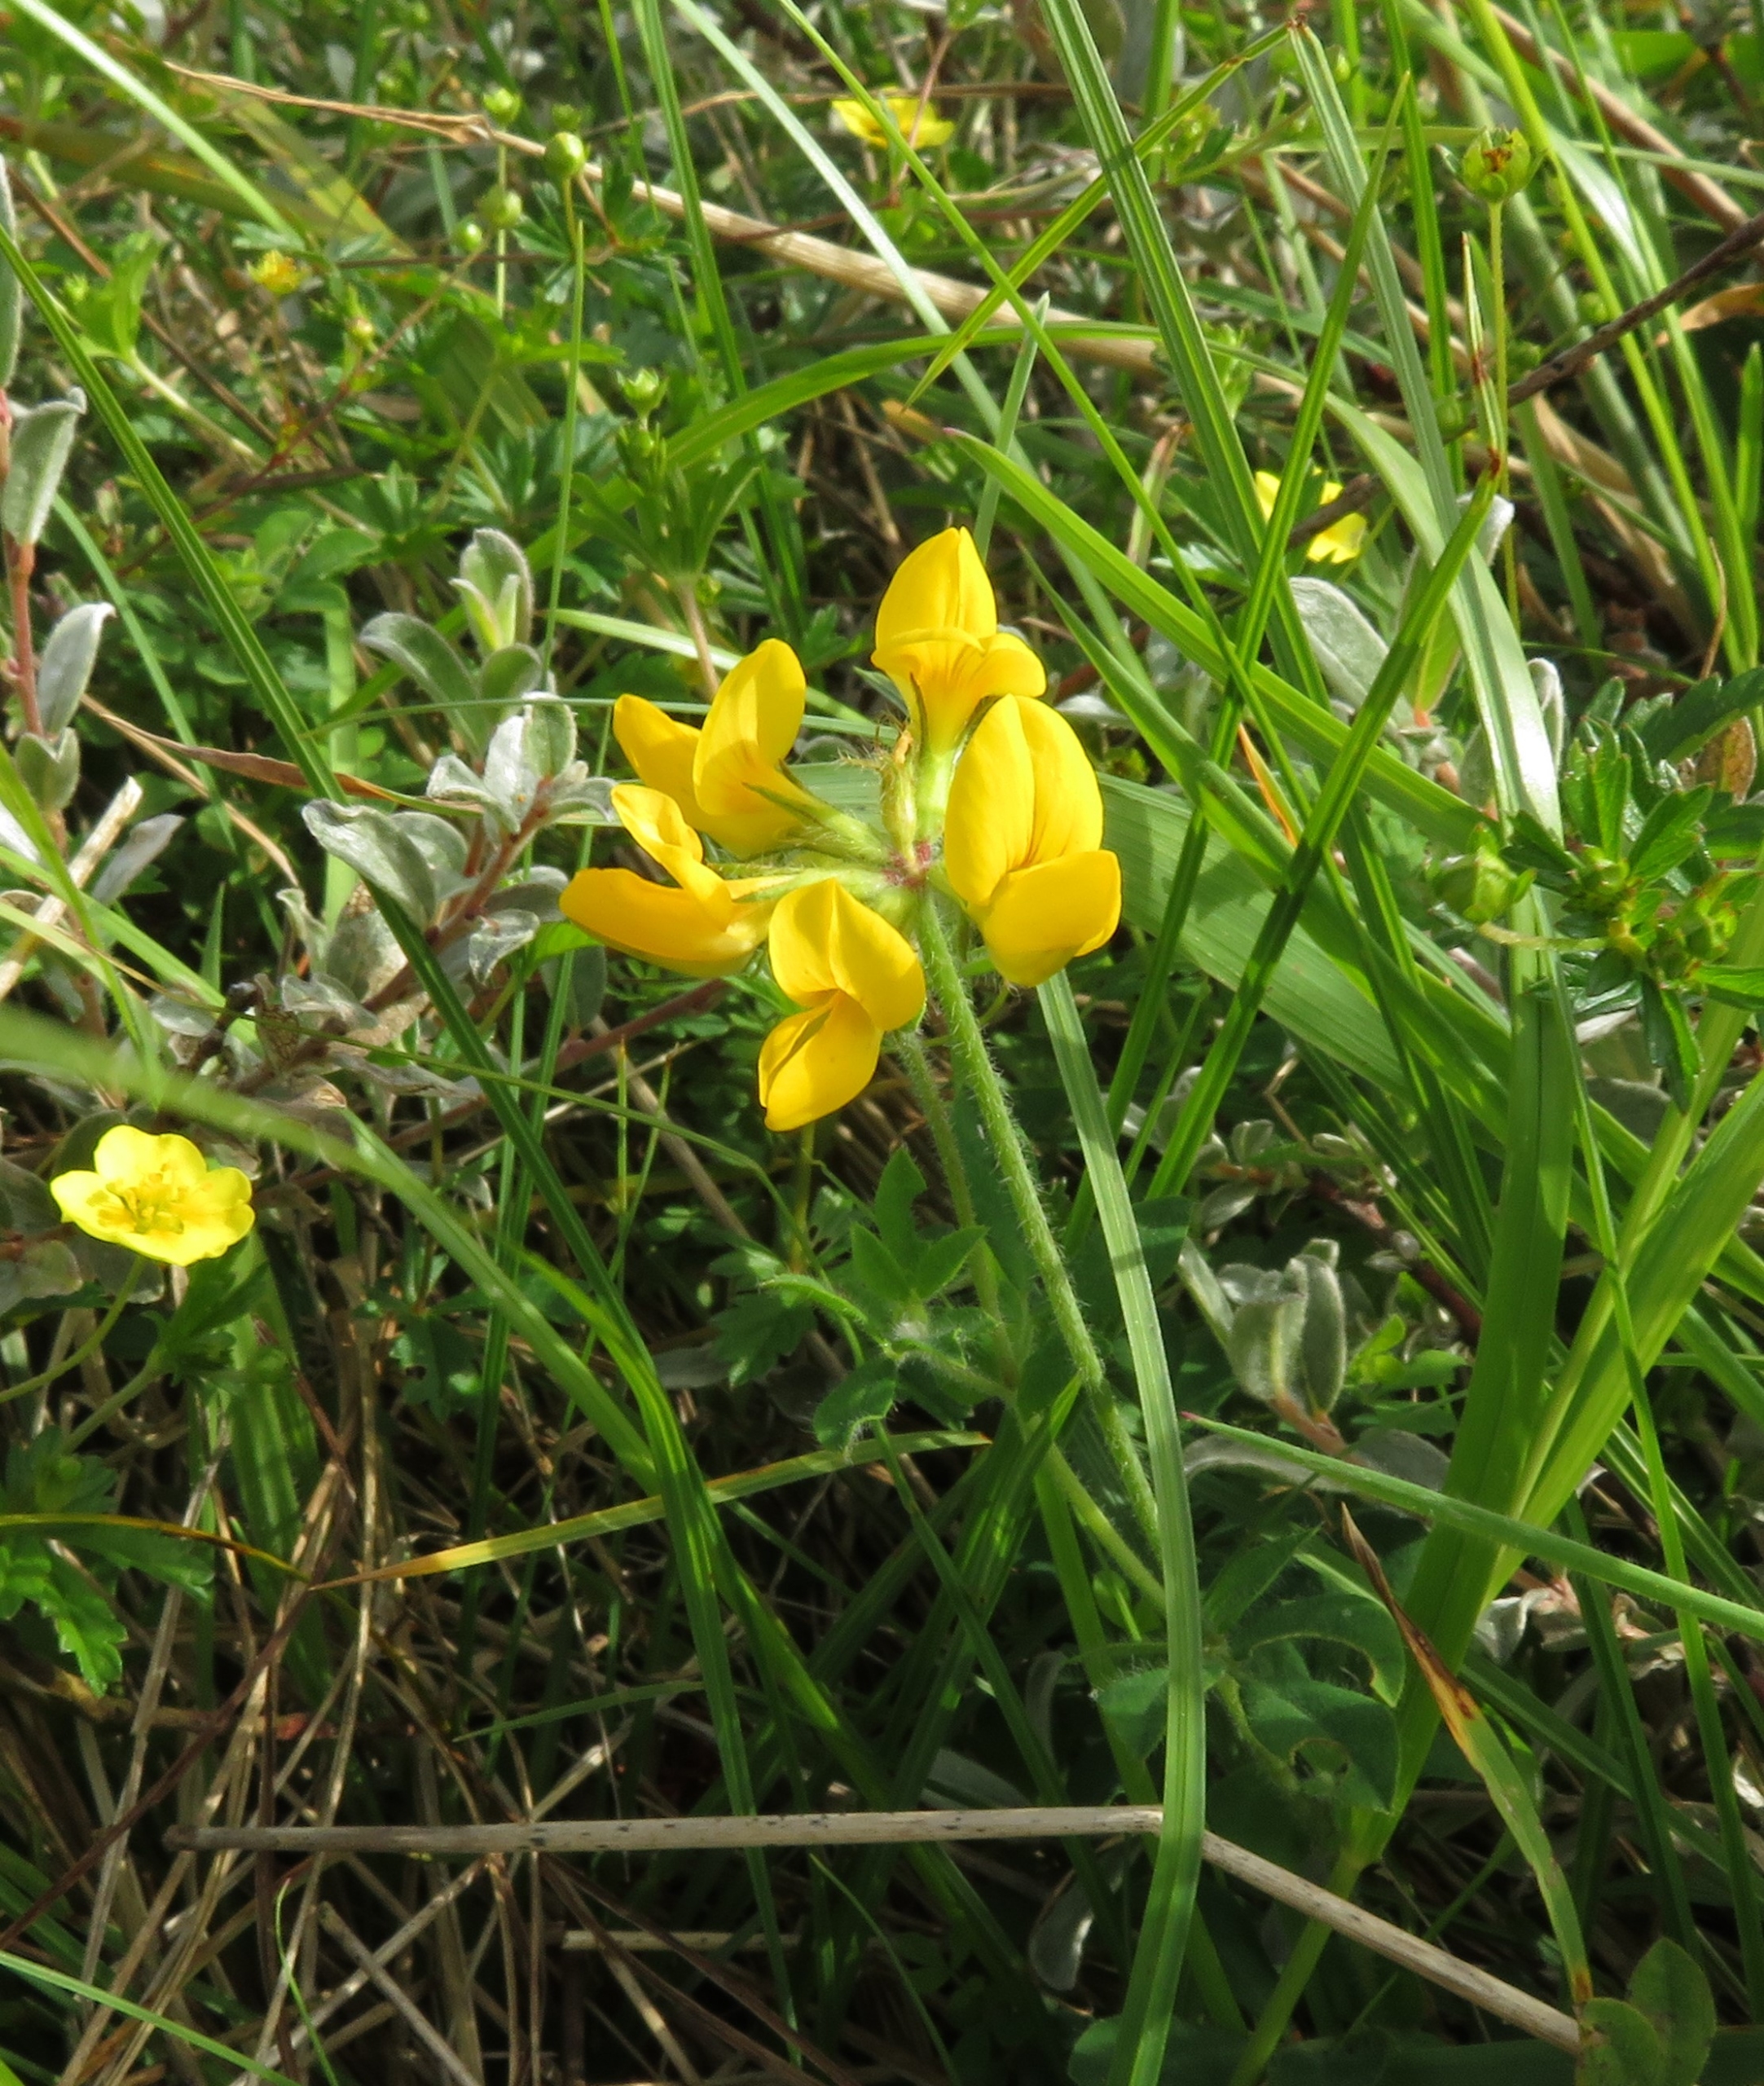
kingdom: Plantae
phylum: Tracheophyta
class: Magnoliopsida
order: Fabales
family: Fabaceae
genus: Lotus
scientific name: Lotus pedunculatus
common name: Klit-kællingetand
